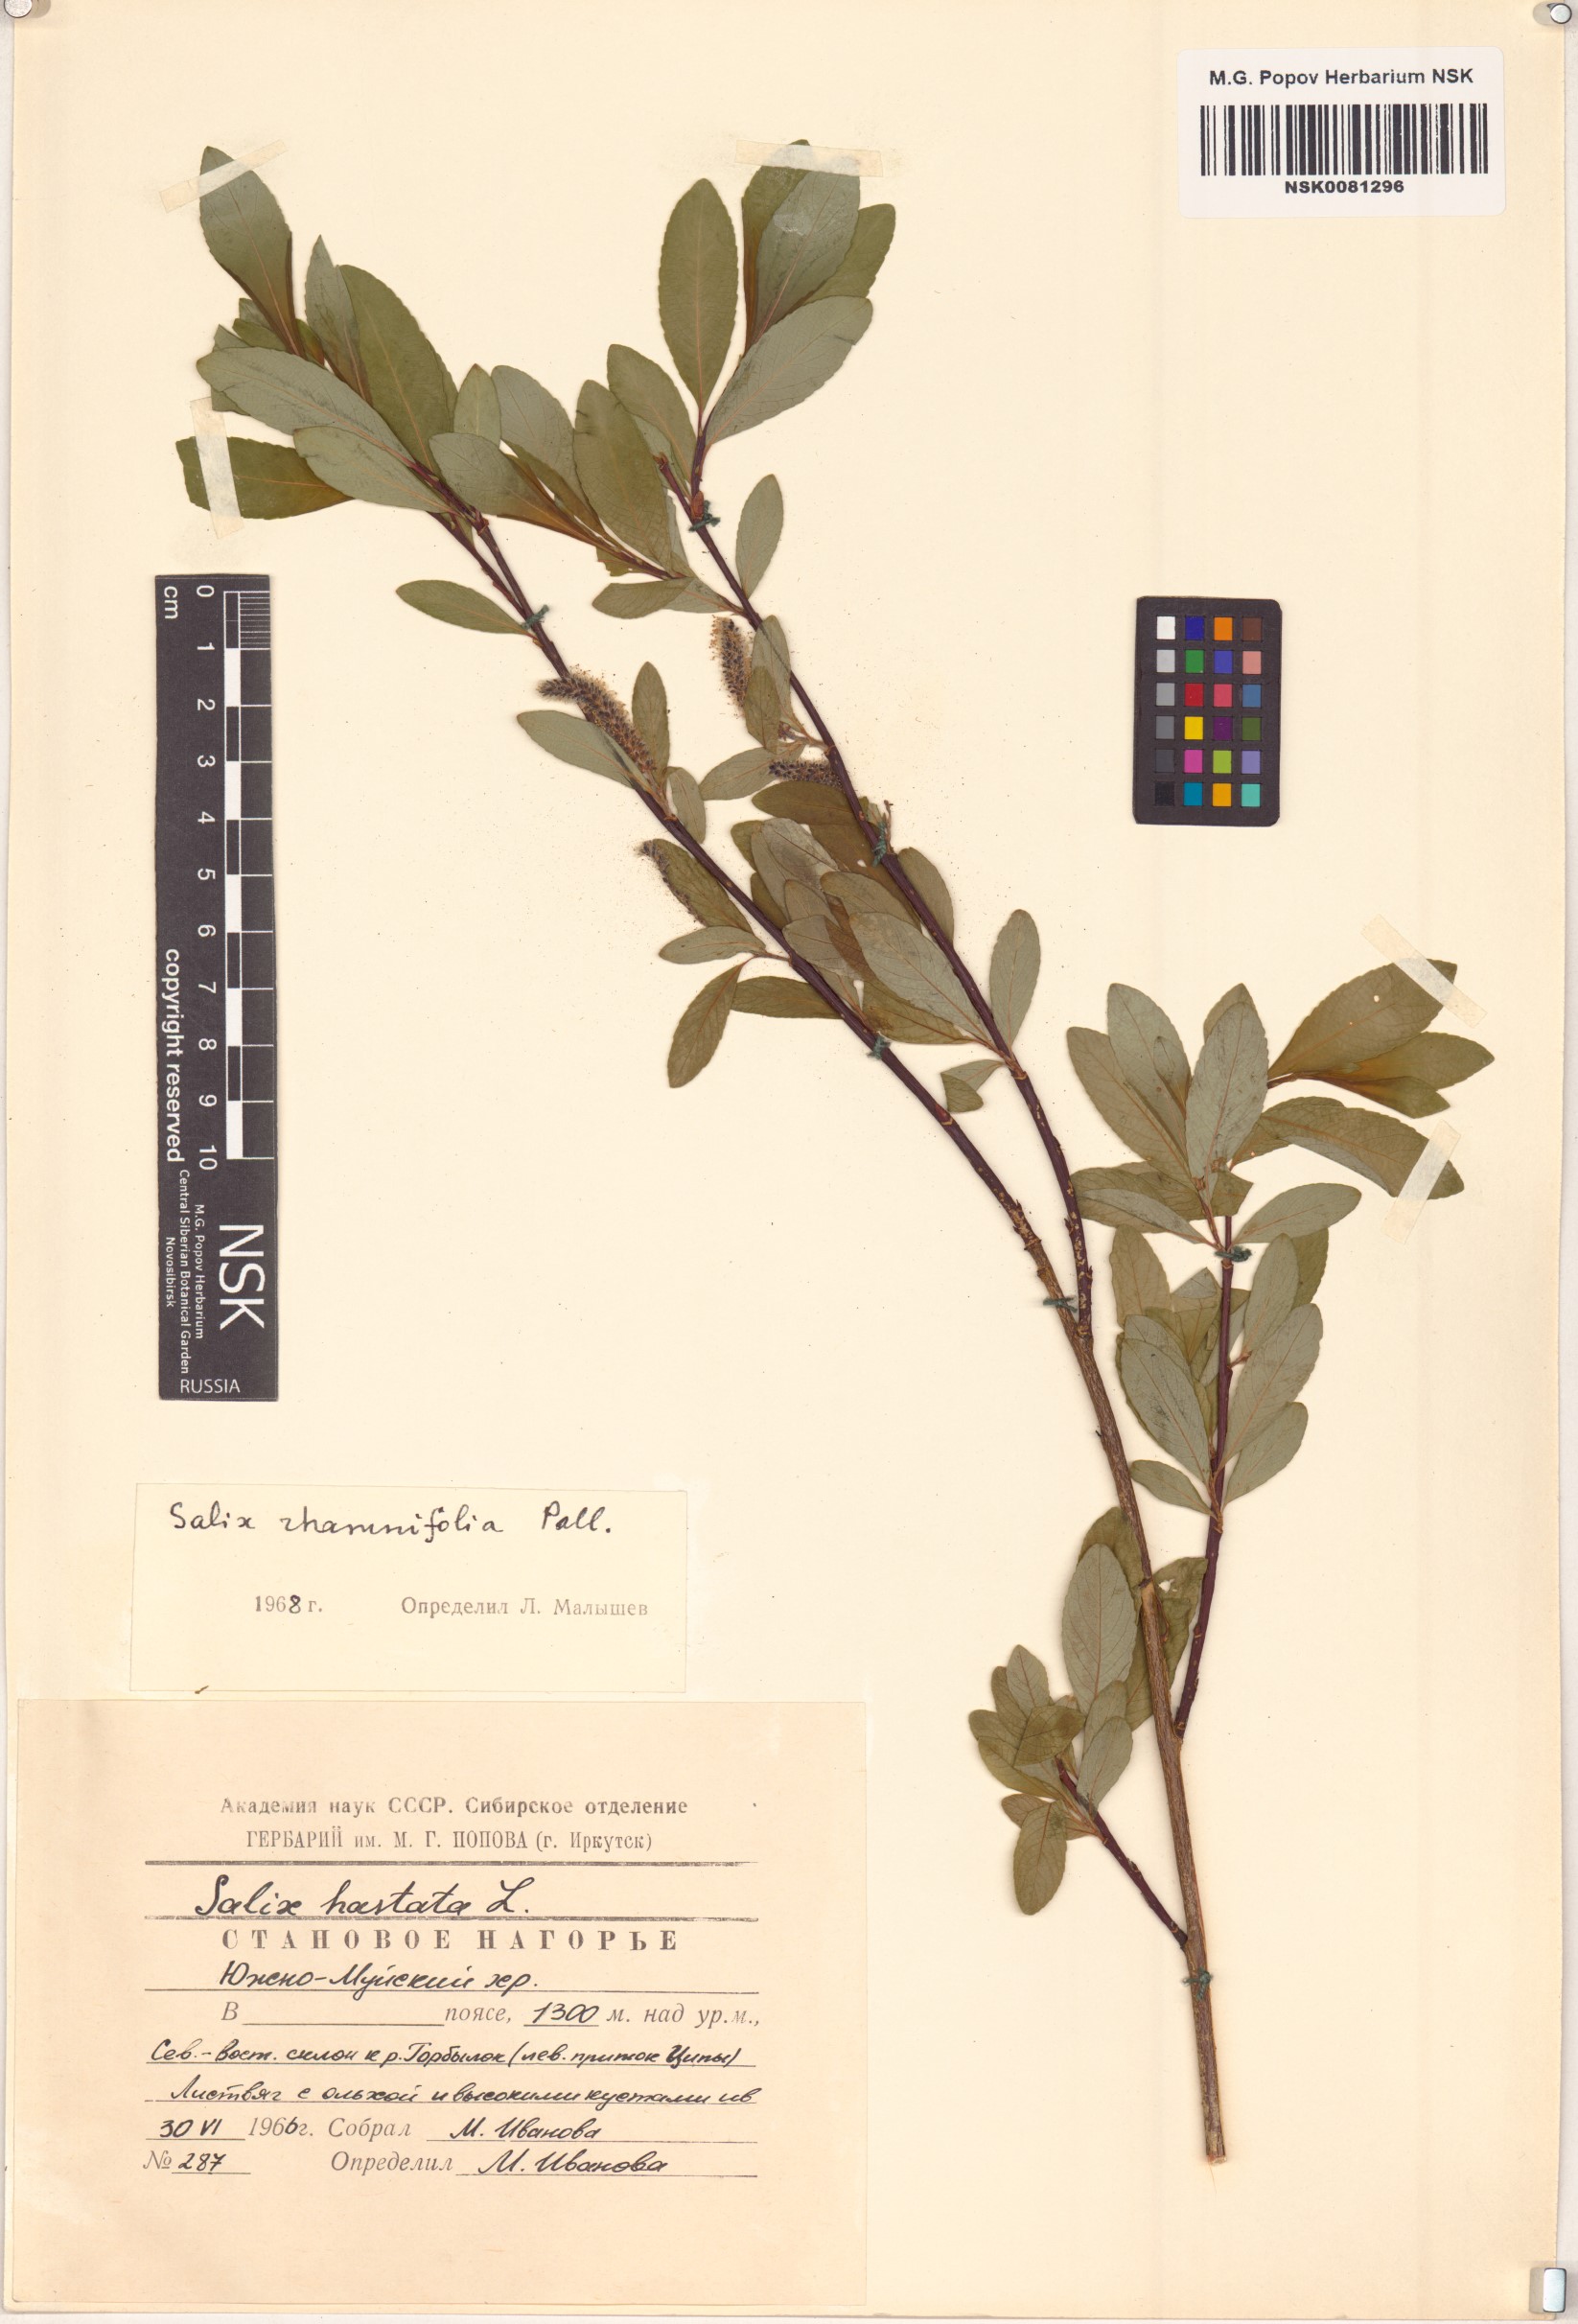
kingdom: Plantae
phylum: Tracheophyta
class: Magnoliopsida
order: Malpighiales
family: Salicaceae
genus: Salix
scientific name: Salix rhamnifolia
